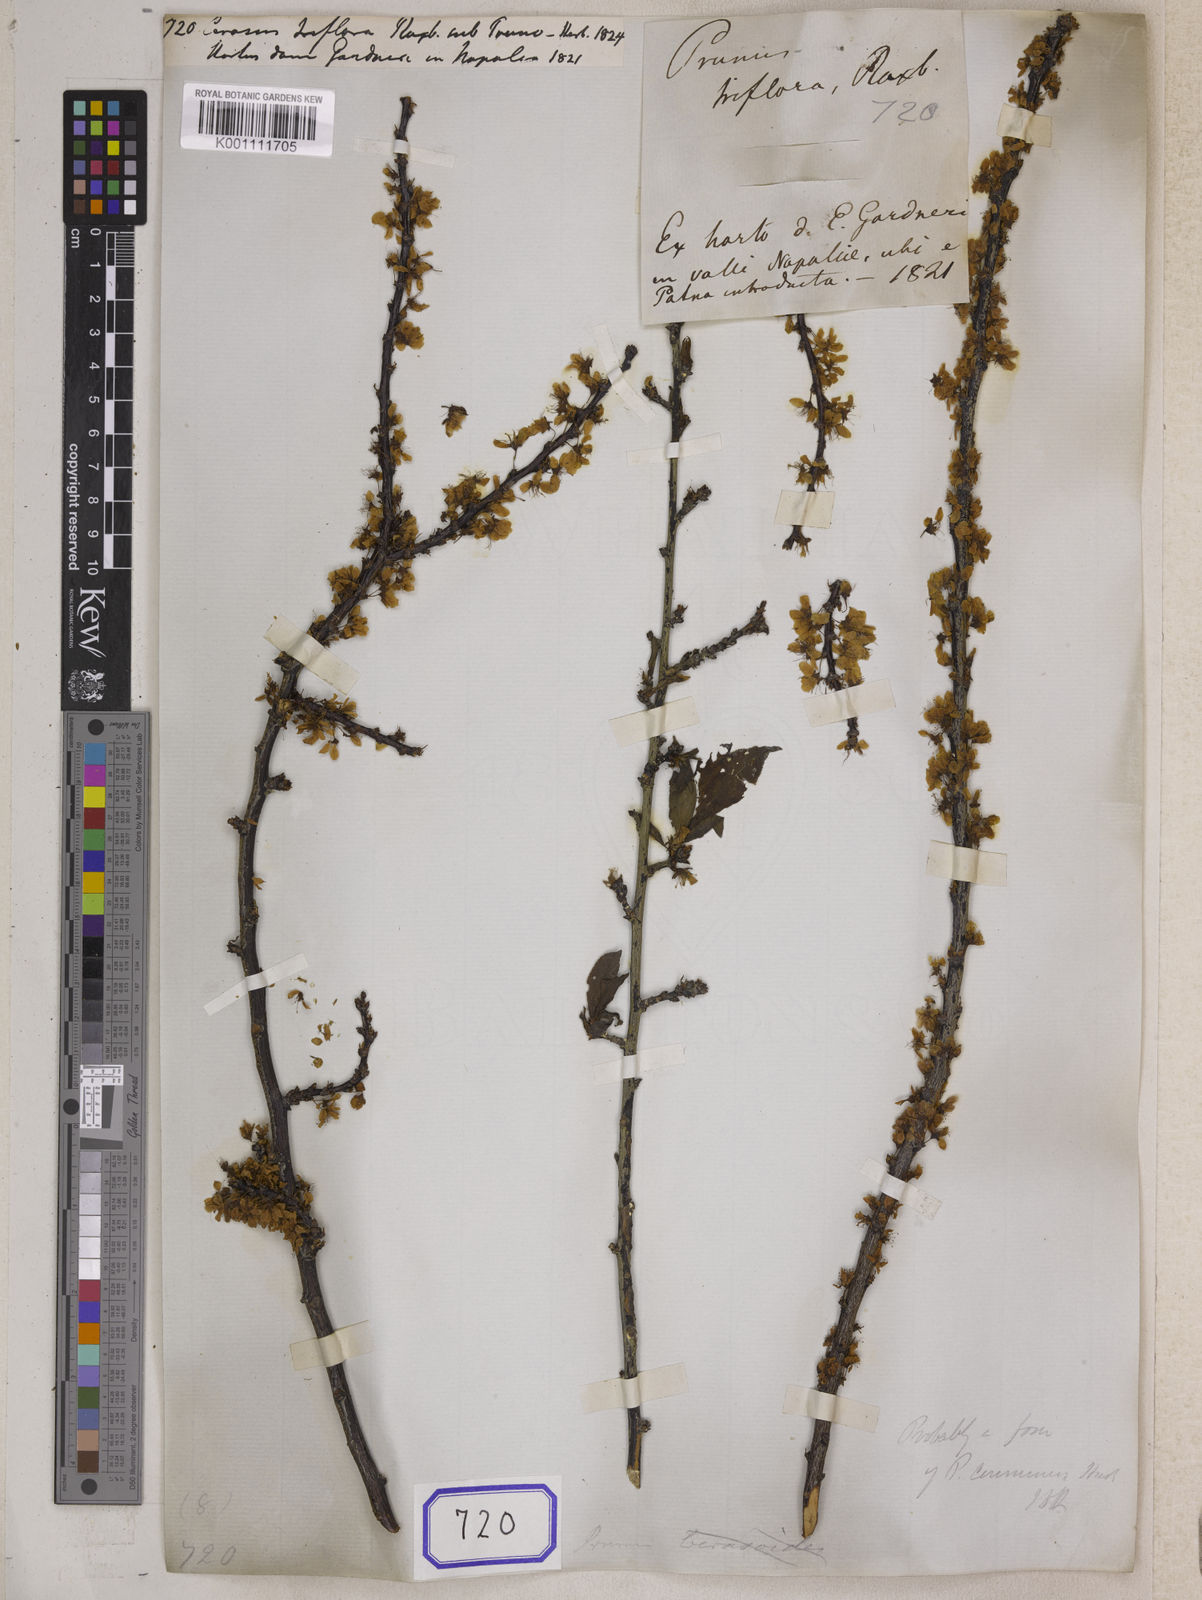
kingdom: Plantae
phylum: Tracheophyta
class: Magnoliopsida
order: Rosales
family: Rosaceae
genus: Prunus
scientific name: Prunus Cerasus myrtifolia
